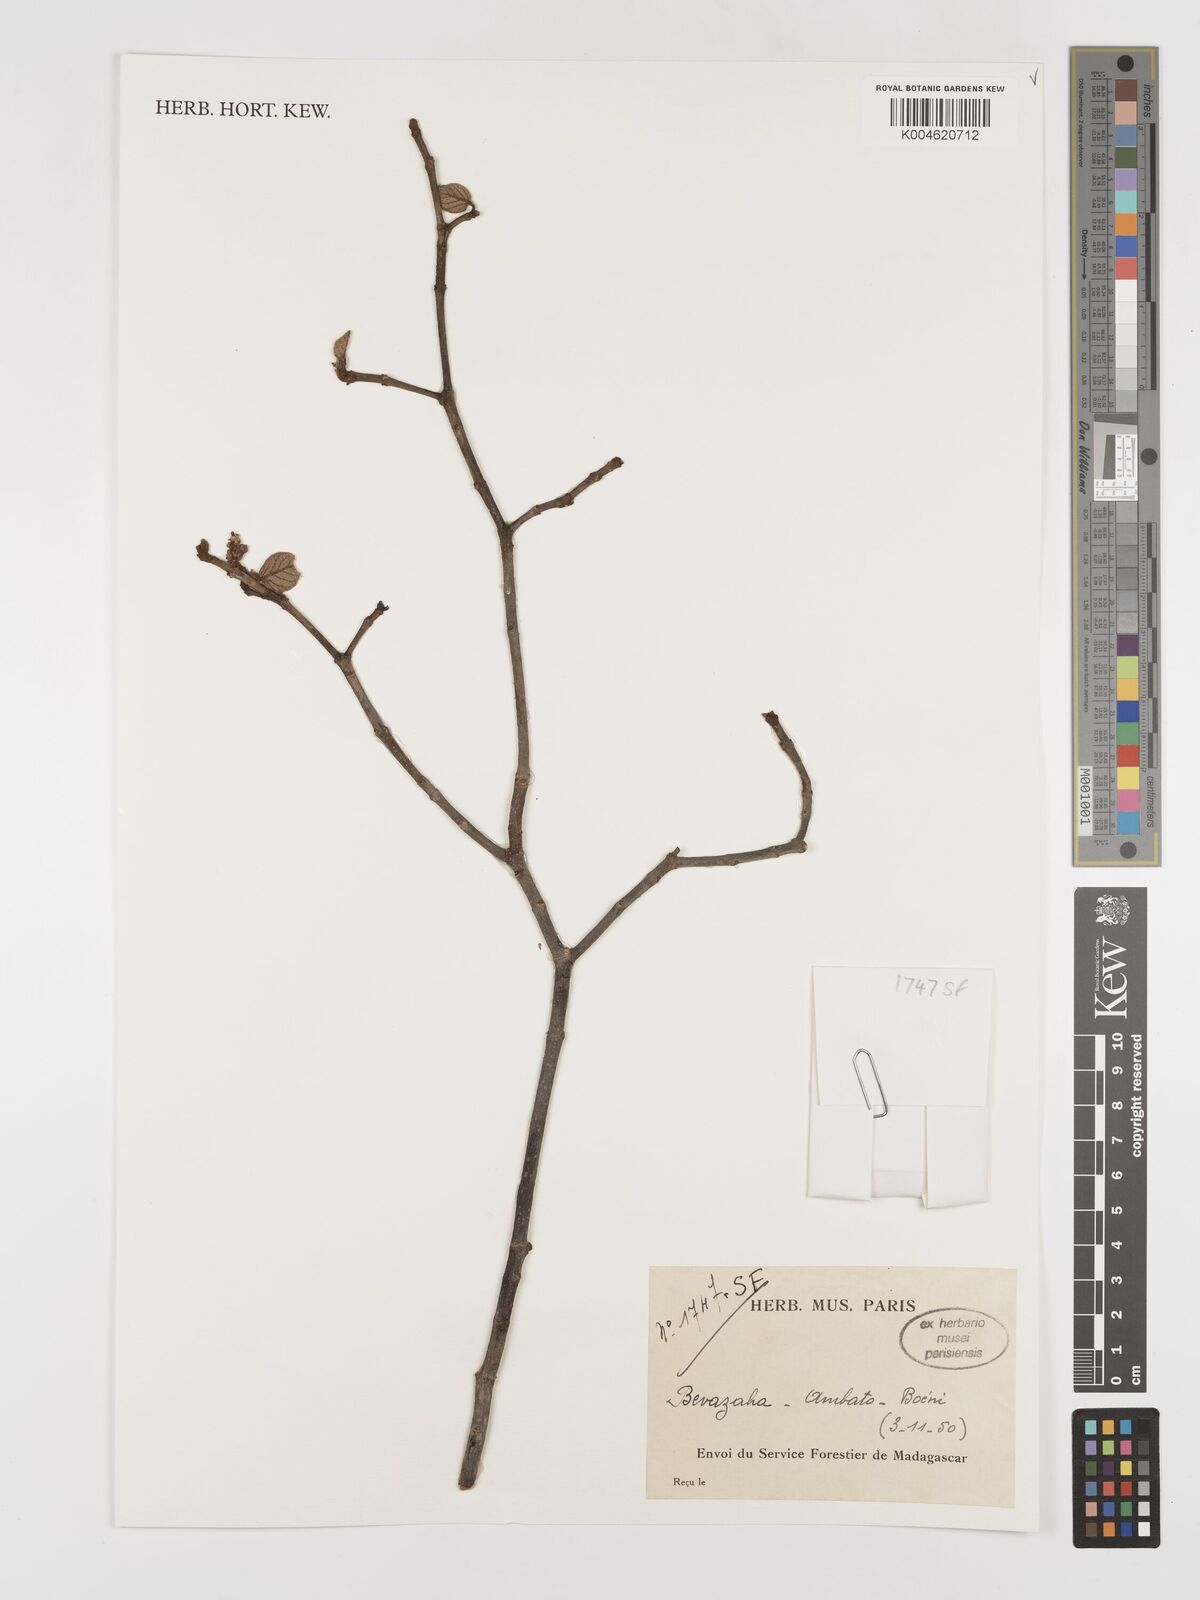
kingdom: Plantae
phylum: Tracheophyta
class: Magnoliopsida
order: Malpighiales
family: Euphorbiaceae
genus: Croton
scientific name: Croton
